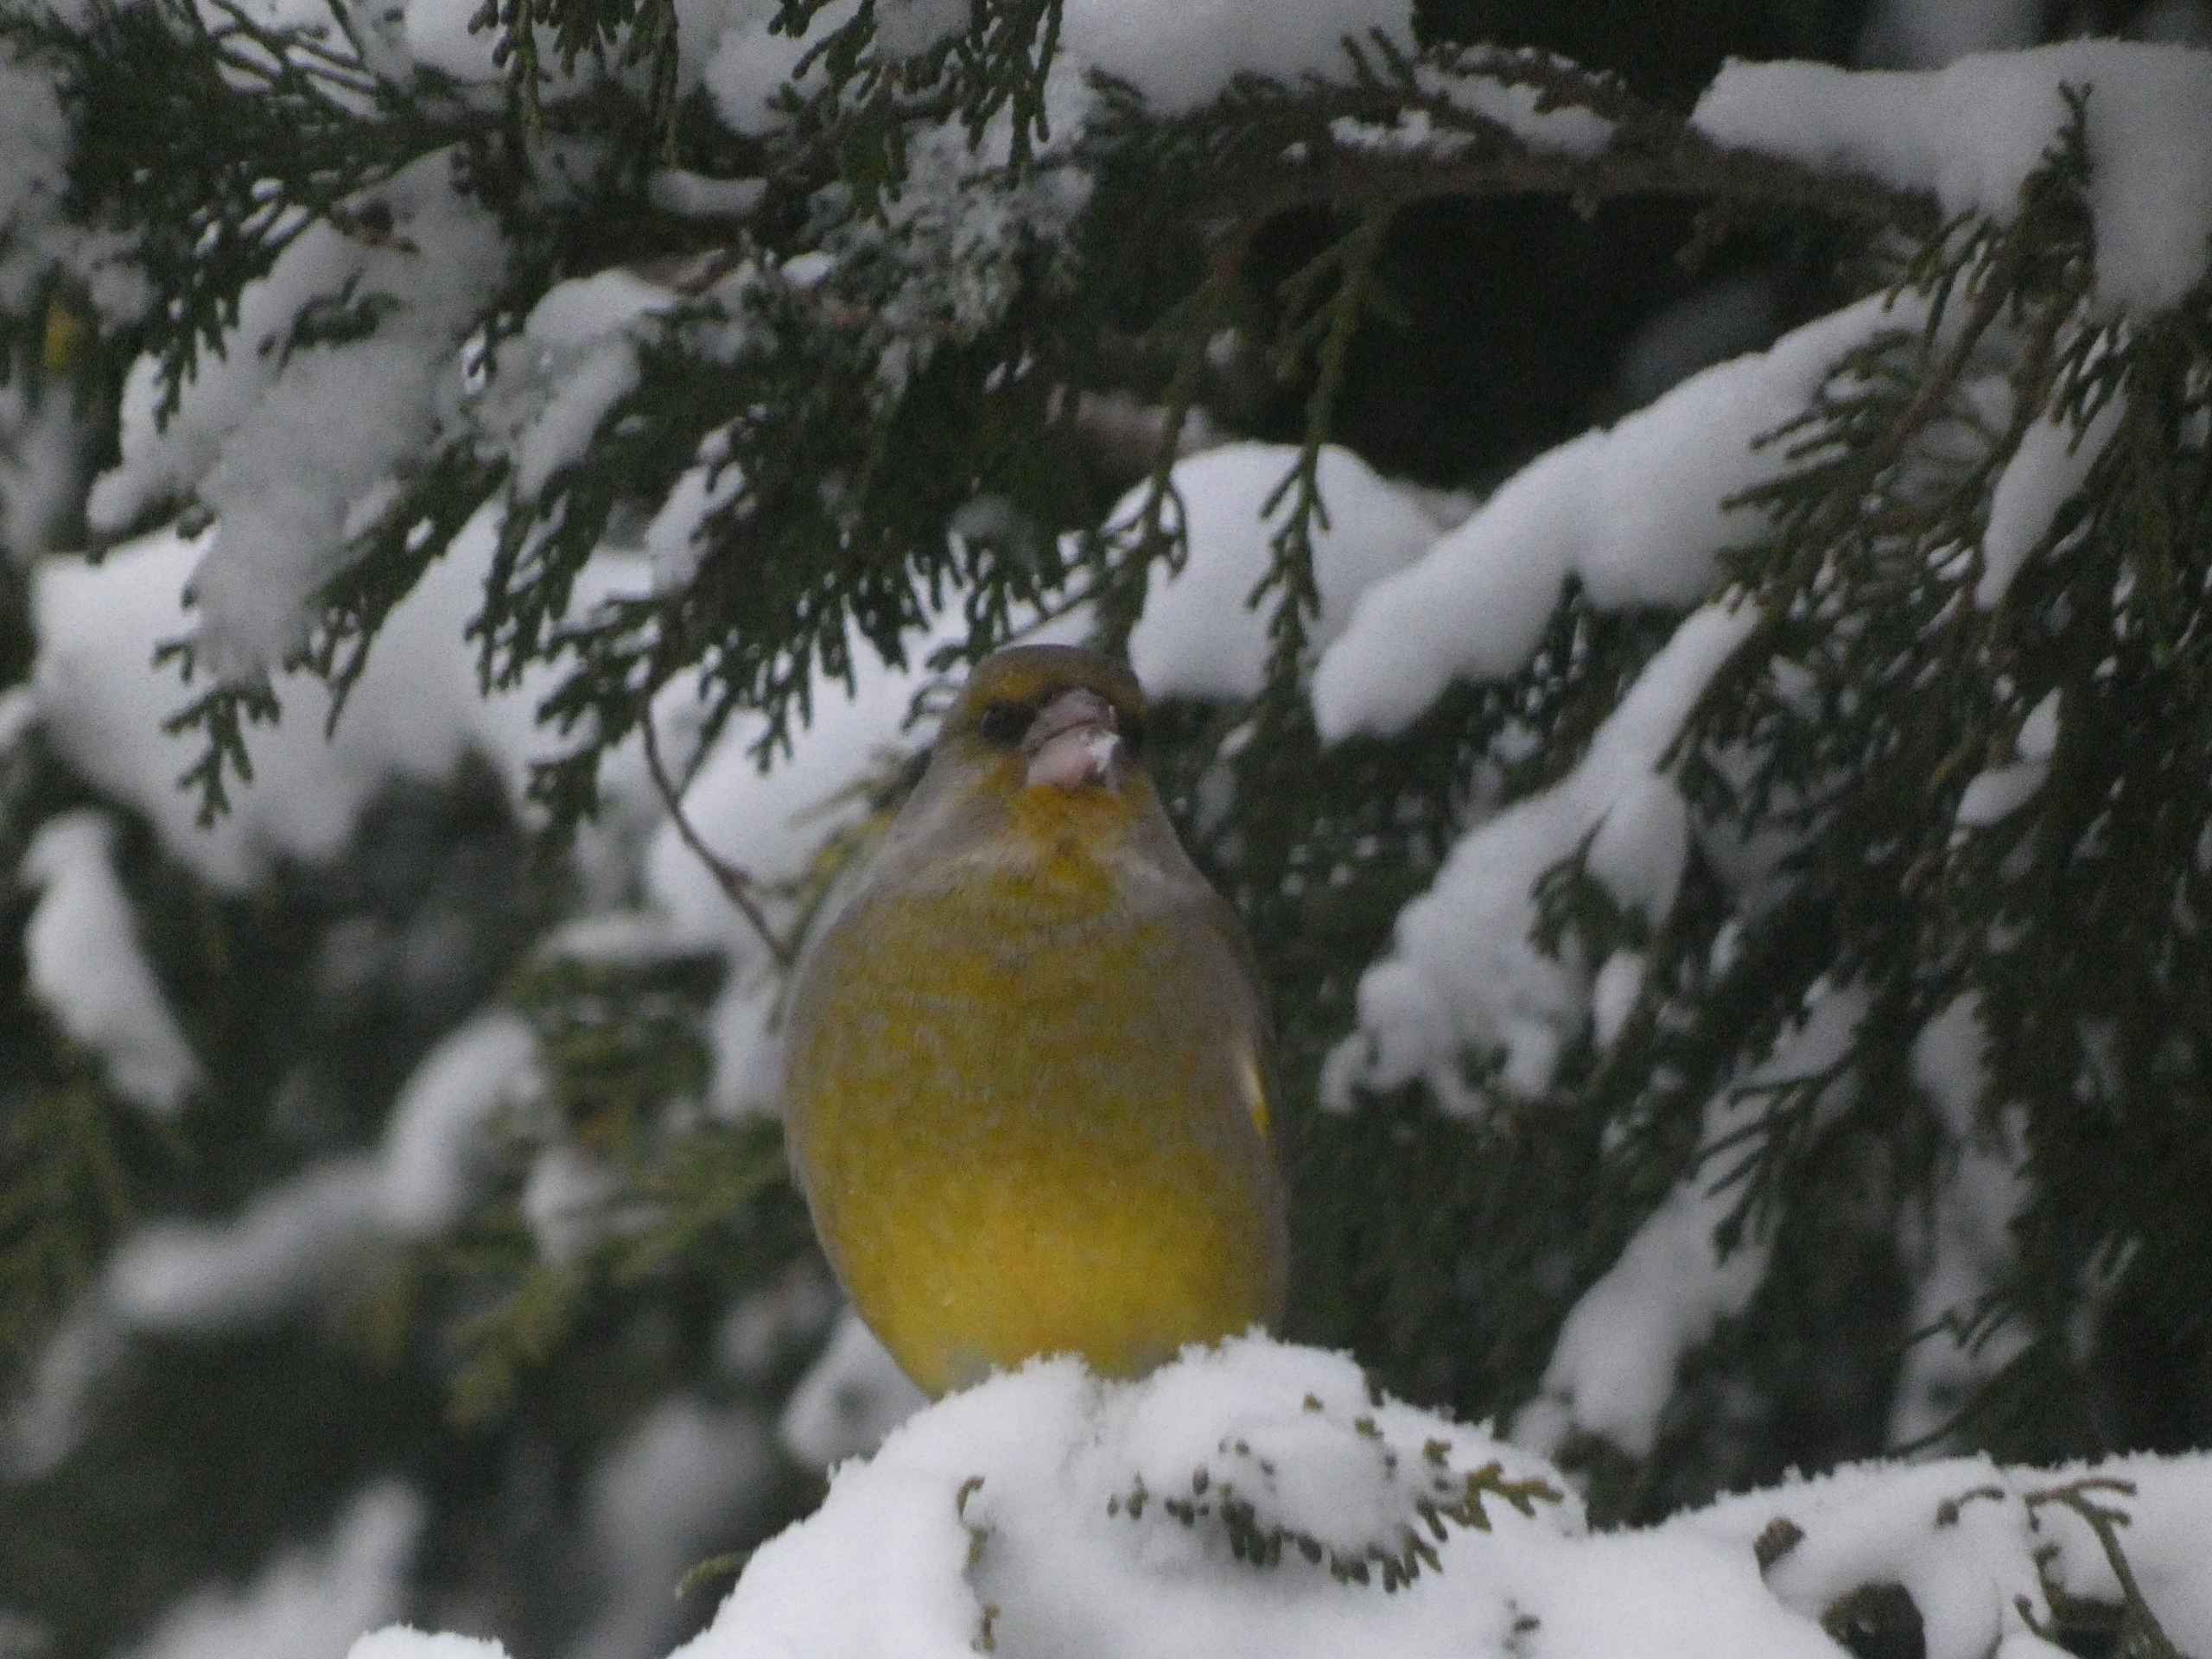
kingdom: Plantae
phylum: Tracheophyta
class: Liliopsida
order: Poales
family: Poaceae
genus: Chloris
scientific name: Chloris chloris
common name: Grønirisk
